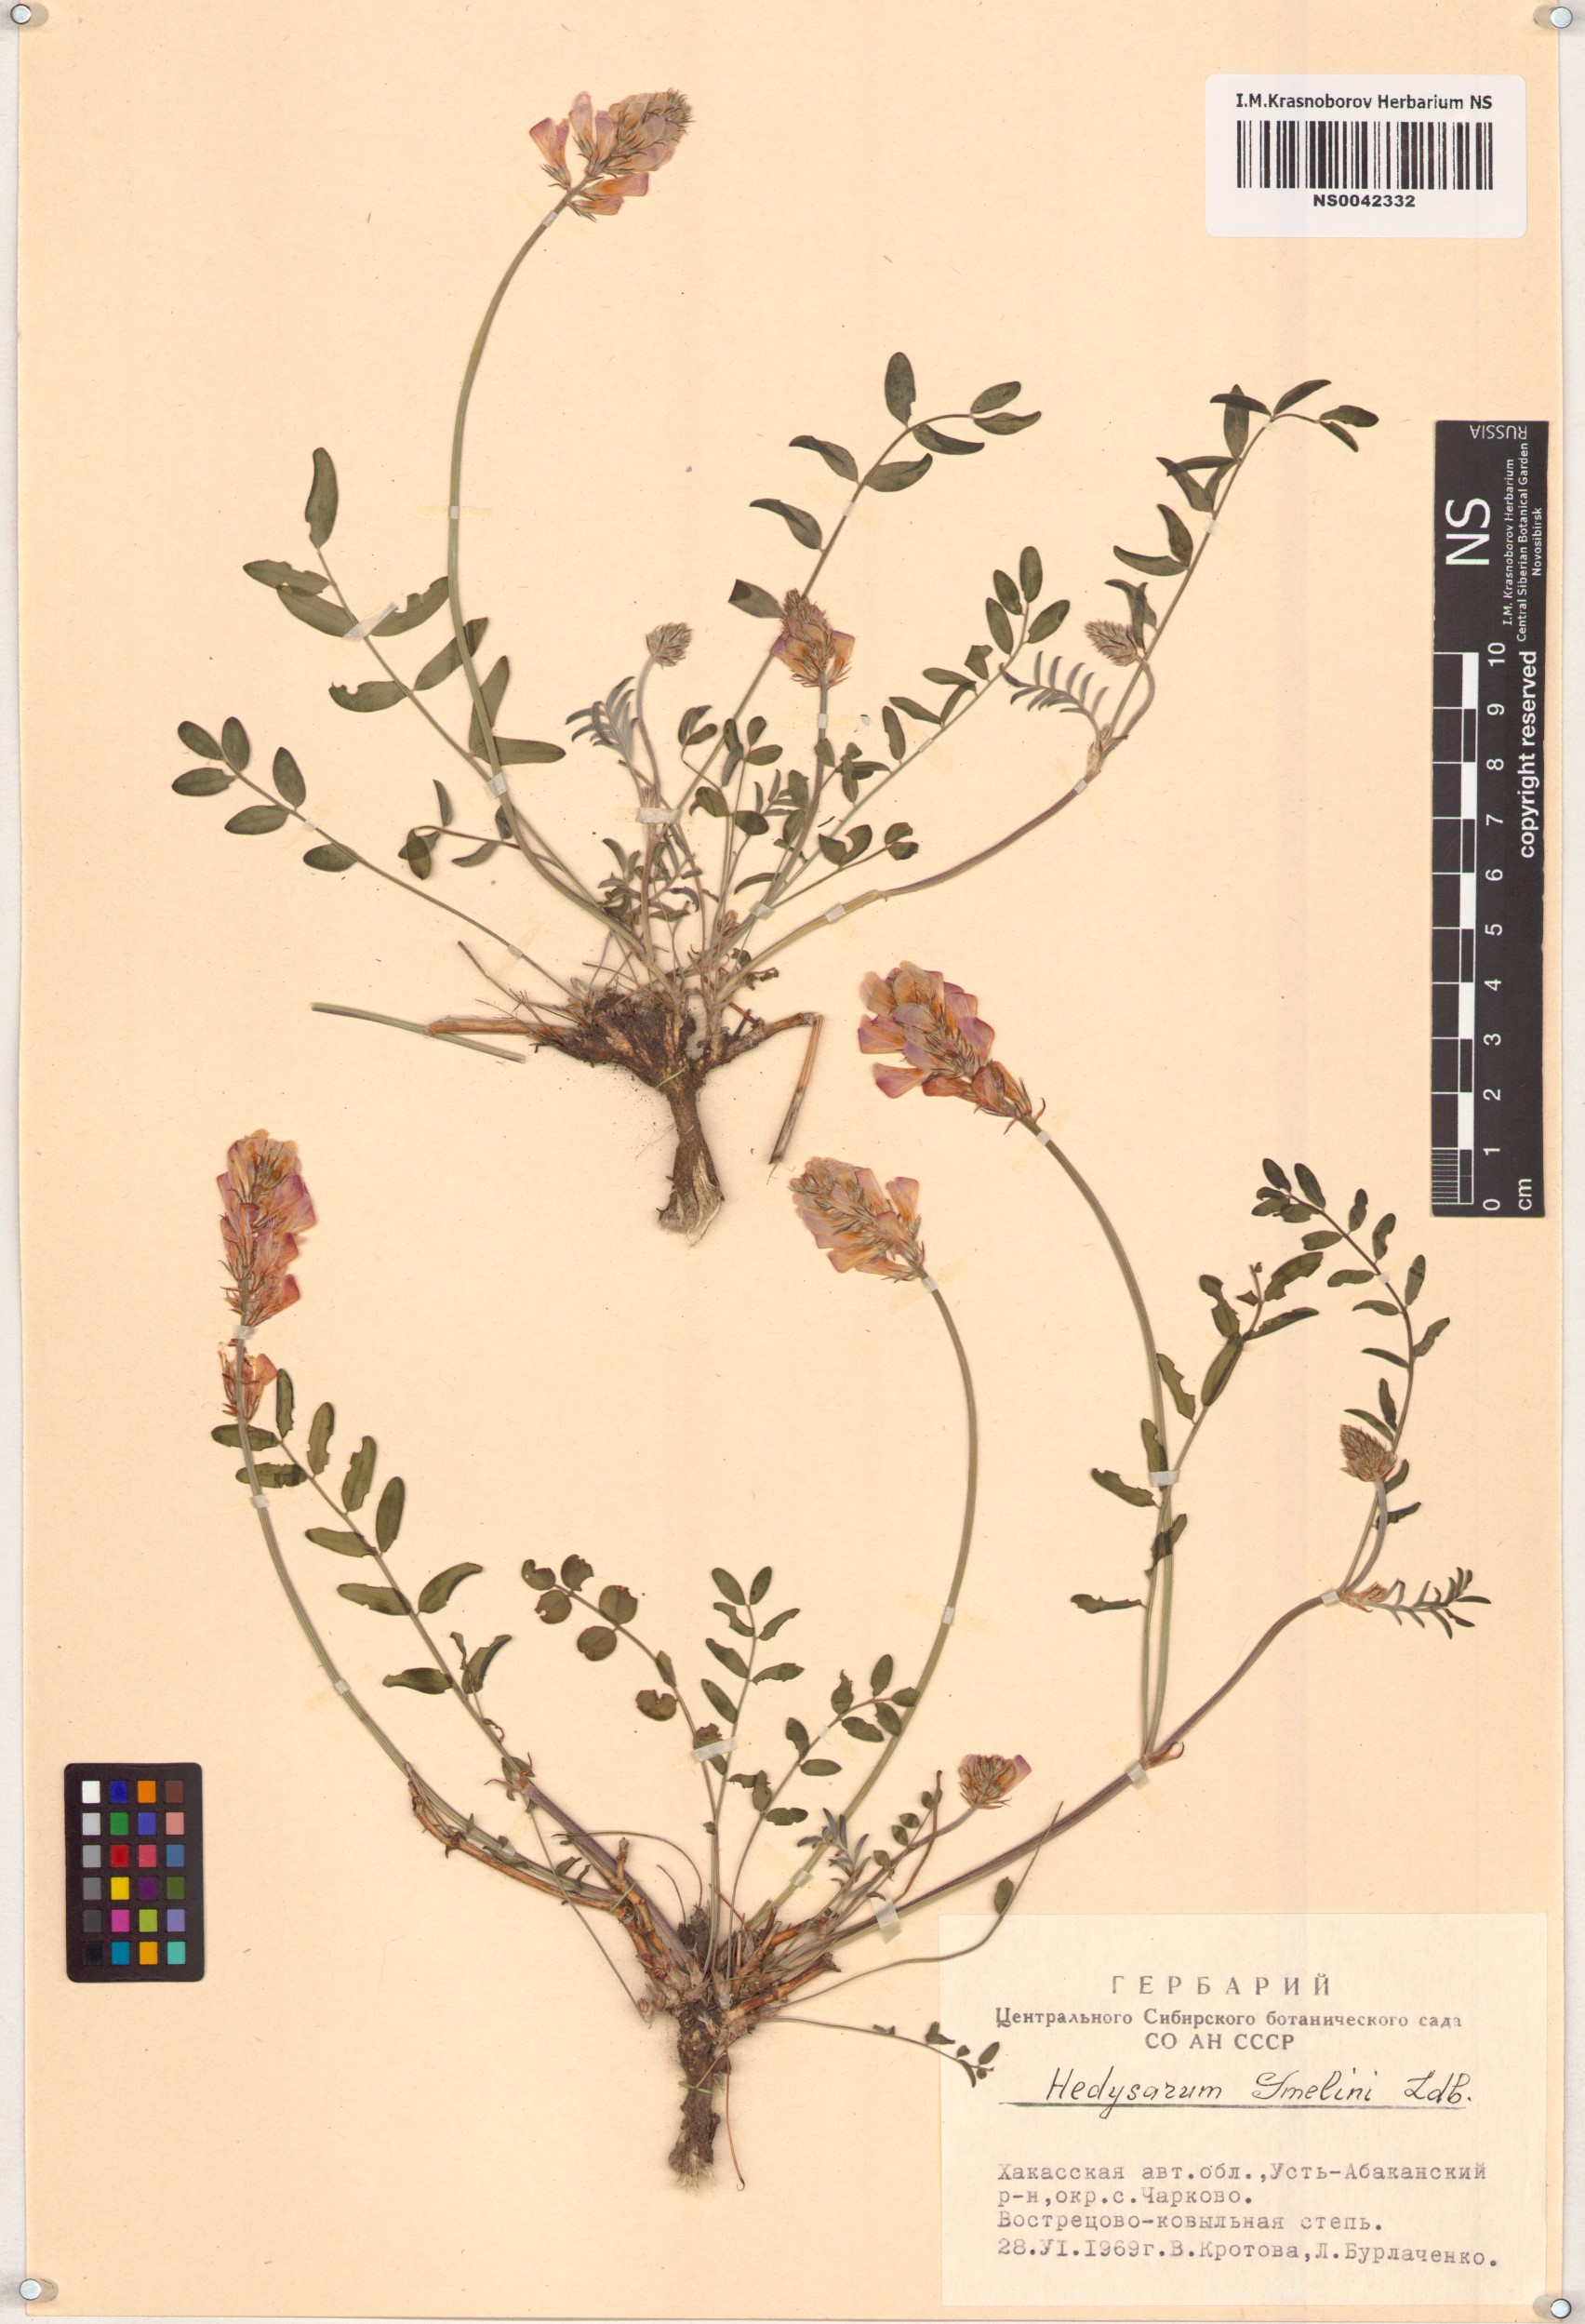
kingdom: Plantae
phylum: Tracheophyta
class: Magnoliopsida
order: Fabales
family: Fabaceae
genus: Hedysarum
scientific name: Hedysarum gmelinii
